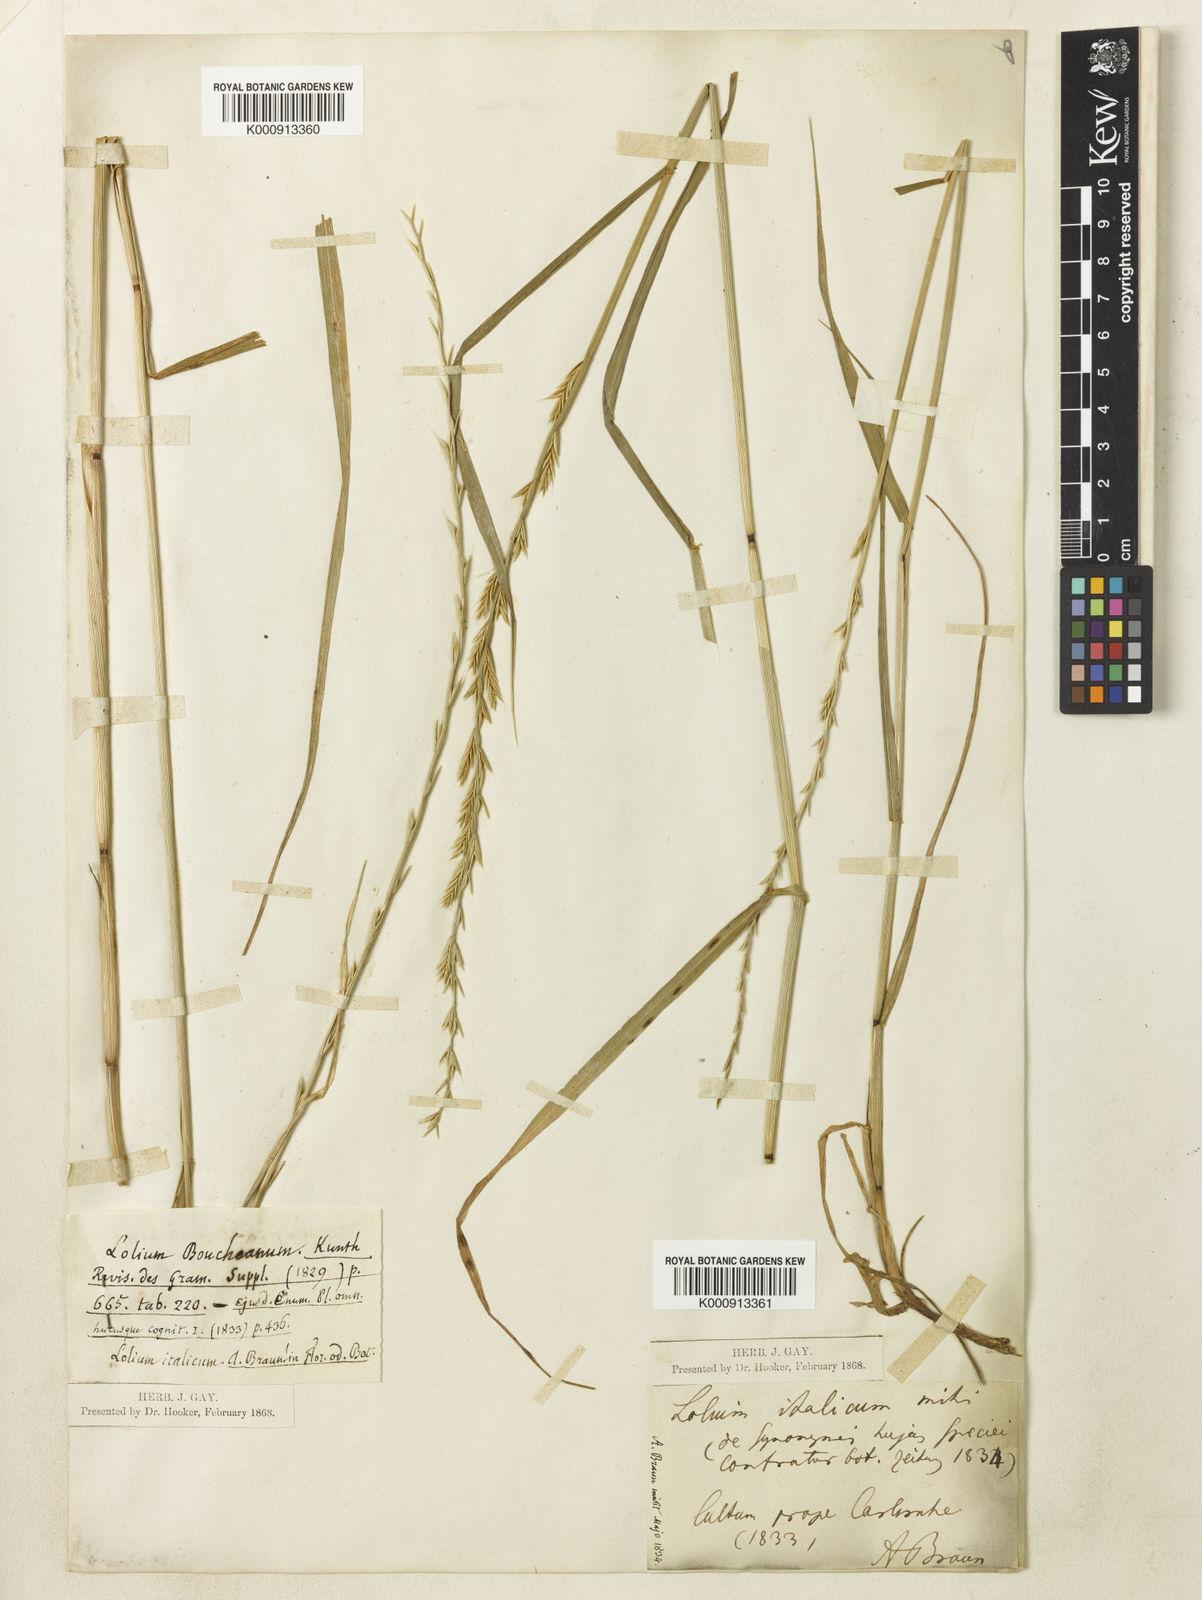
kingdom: Plantae
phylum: Tracheophyta
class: Liliopsida
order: Poales
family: Poaceae
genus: Lolium
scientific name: Lolium multiflorum
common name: Annual ryegrass
